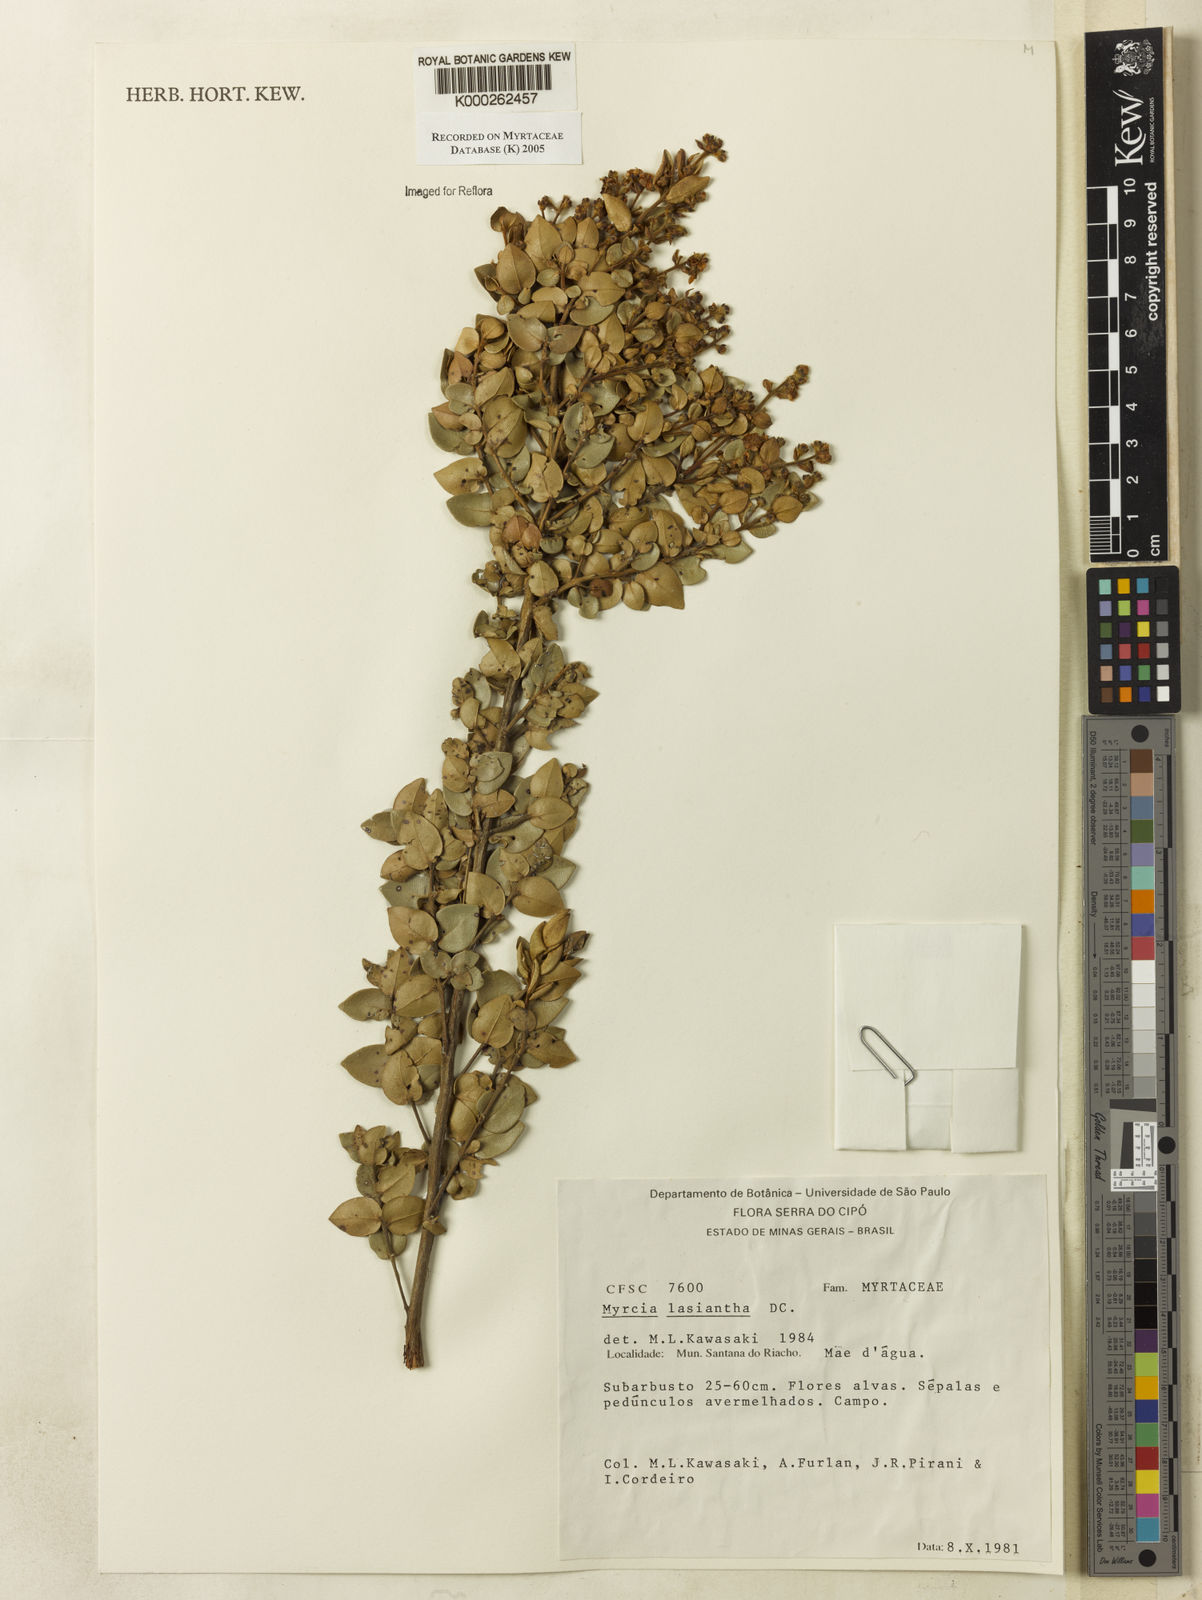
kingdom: Plantae
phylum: Tracheophyta
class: Magnoliopsida
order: Myrtales
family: Myrtaceae
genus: Myrcia
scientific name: Myrcia lasiantha
